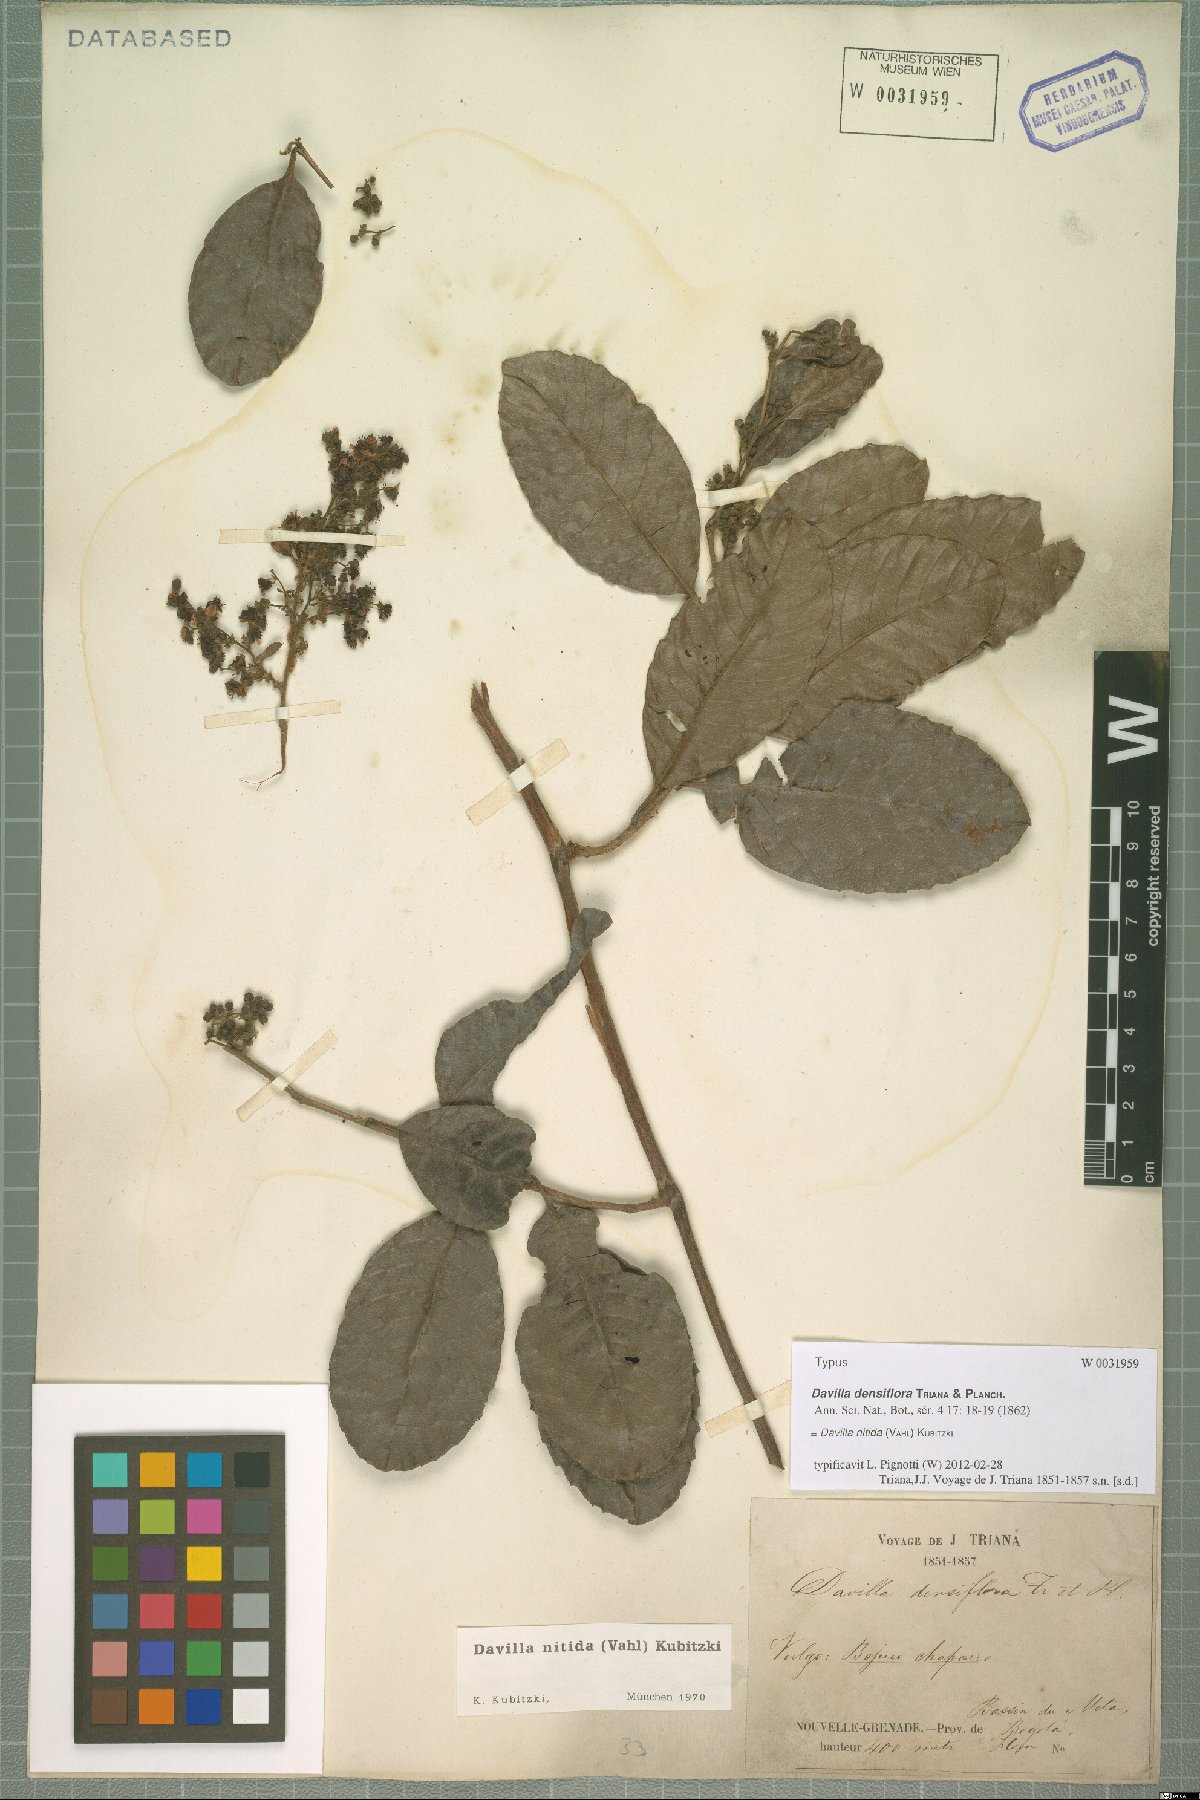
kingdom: Plantae
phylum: Tracheophyta
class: Magnoliopsida
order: Dilleniales
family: Dilleniaceae
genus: Davilla
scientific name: Davilla nitida
